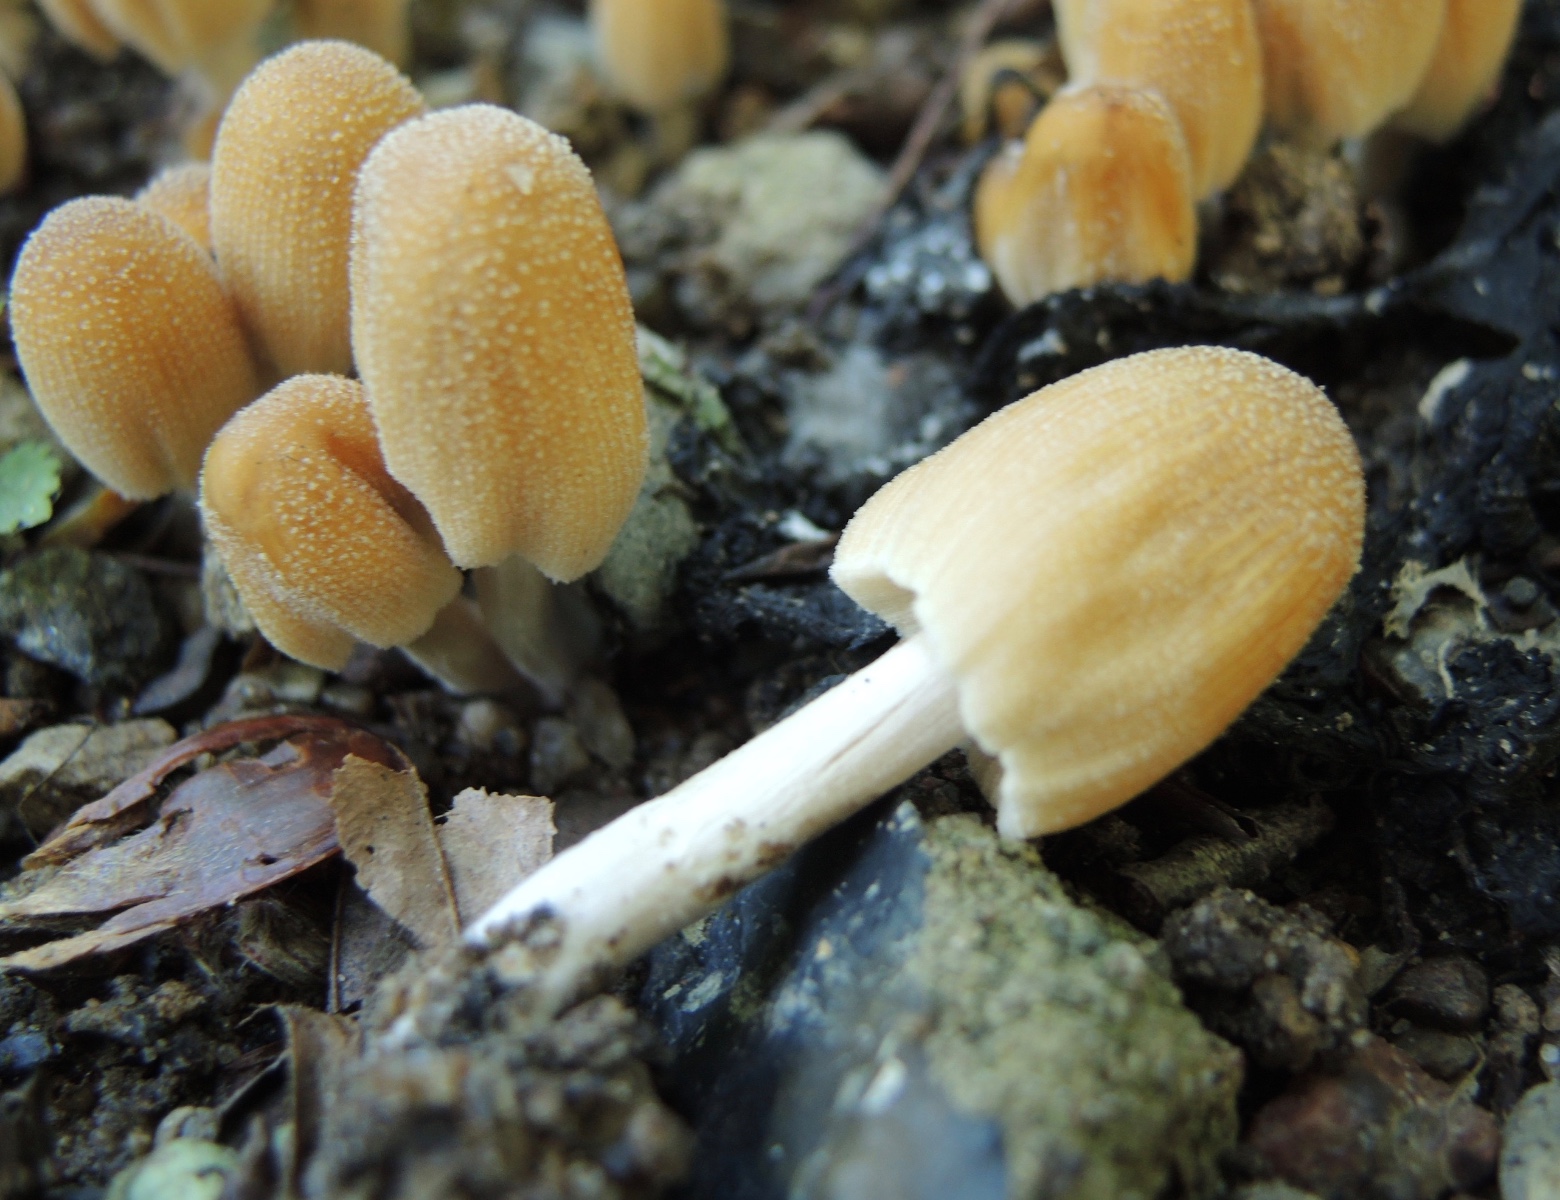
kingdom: Fungi
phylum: Basidiomycota
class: Agaricomycetes
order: Agaricales
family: Psathyrellaceae
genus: Coprinellus
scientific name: Coprinellus micaceus
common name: glimmer-blækhat
